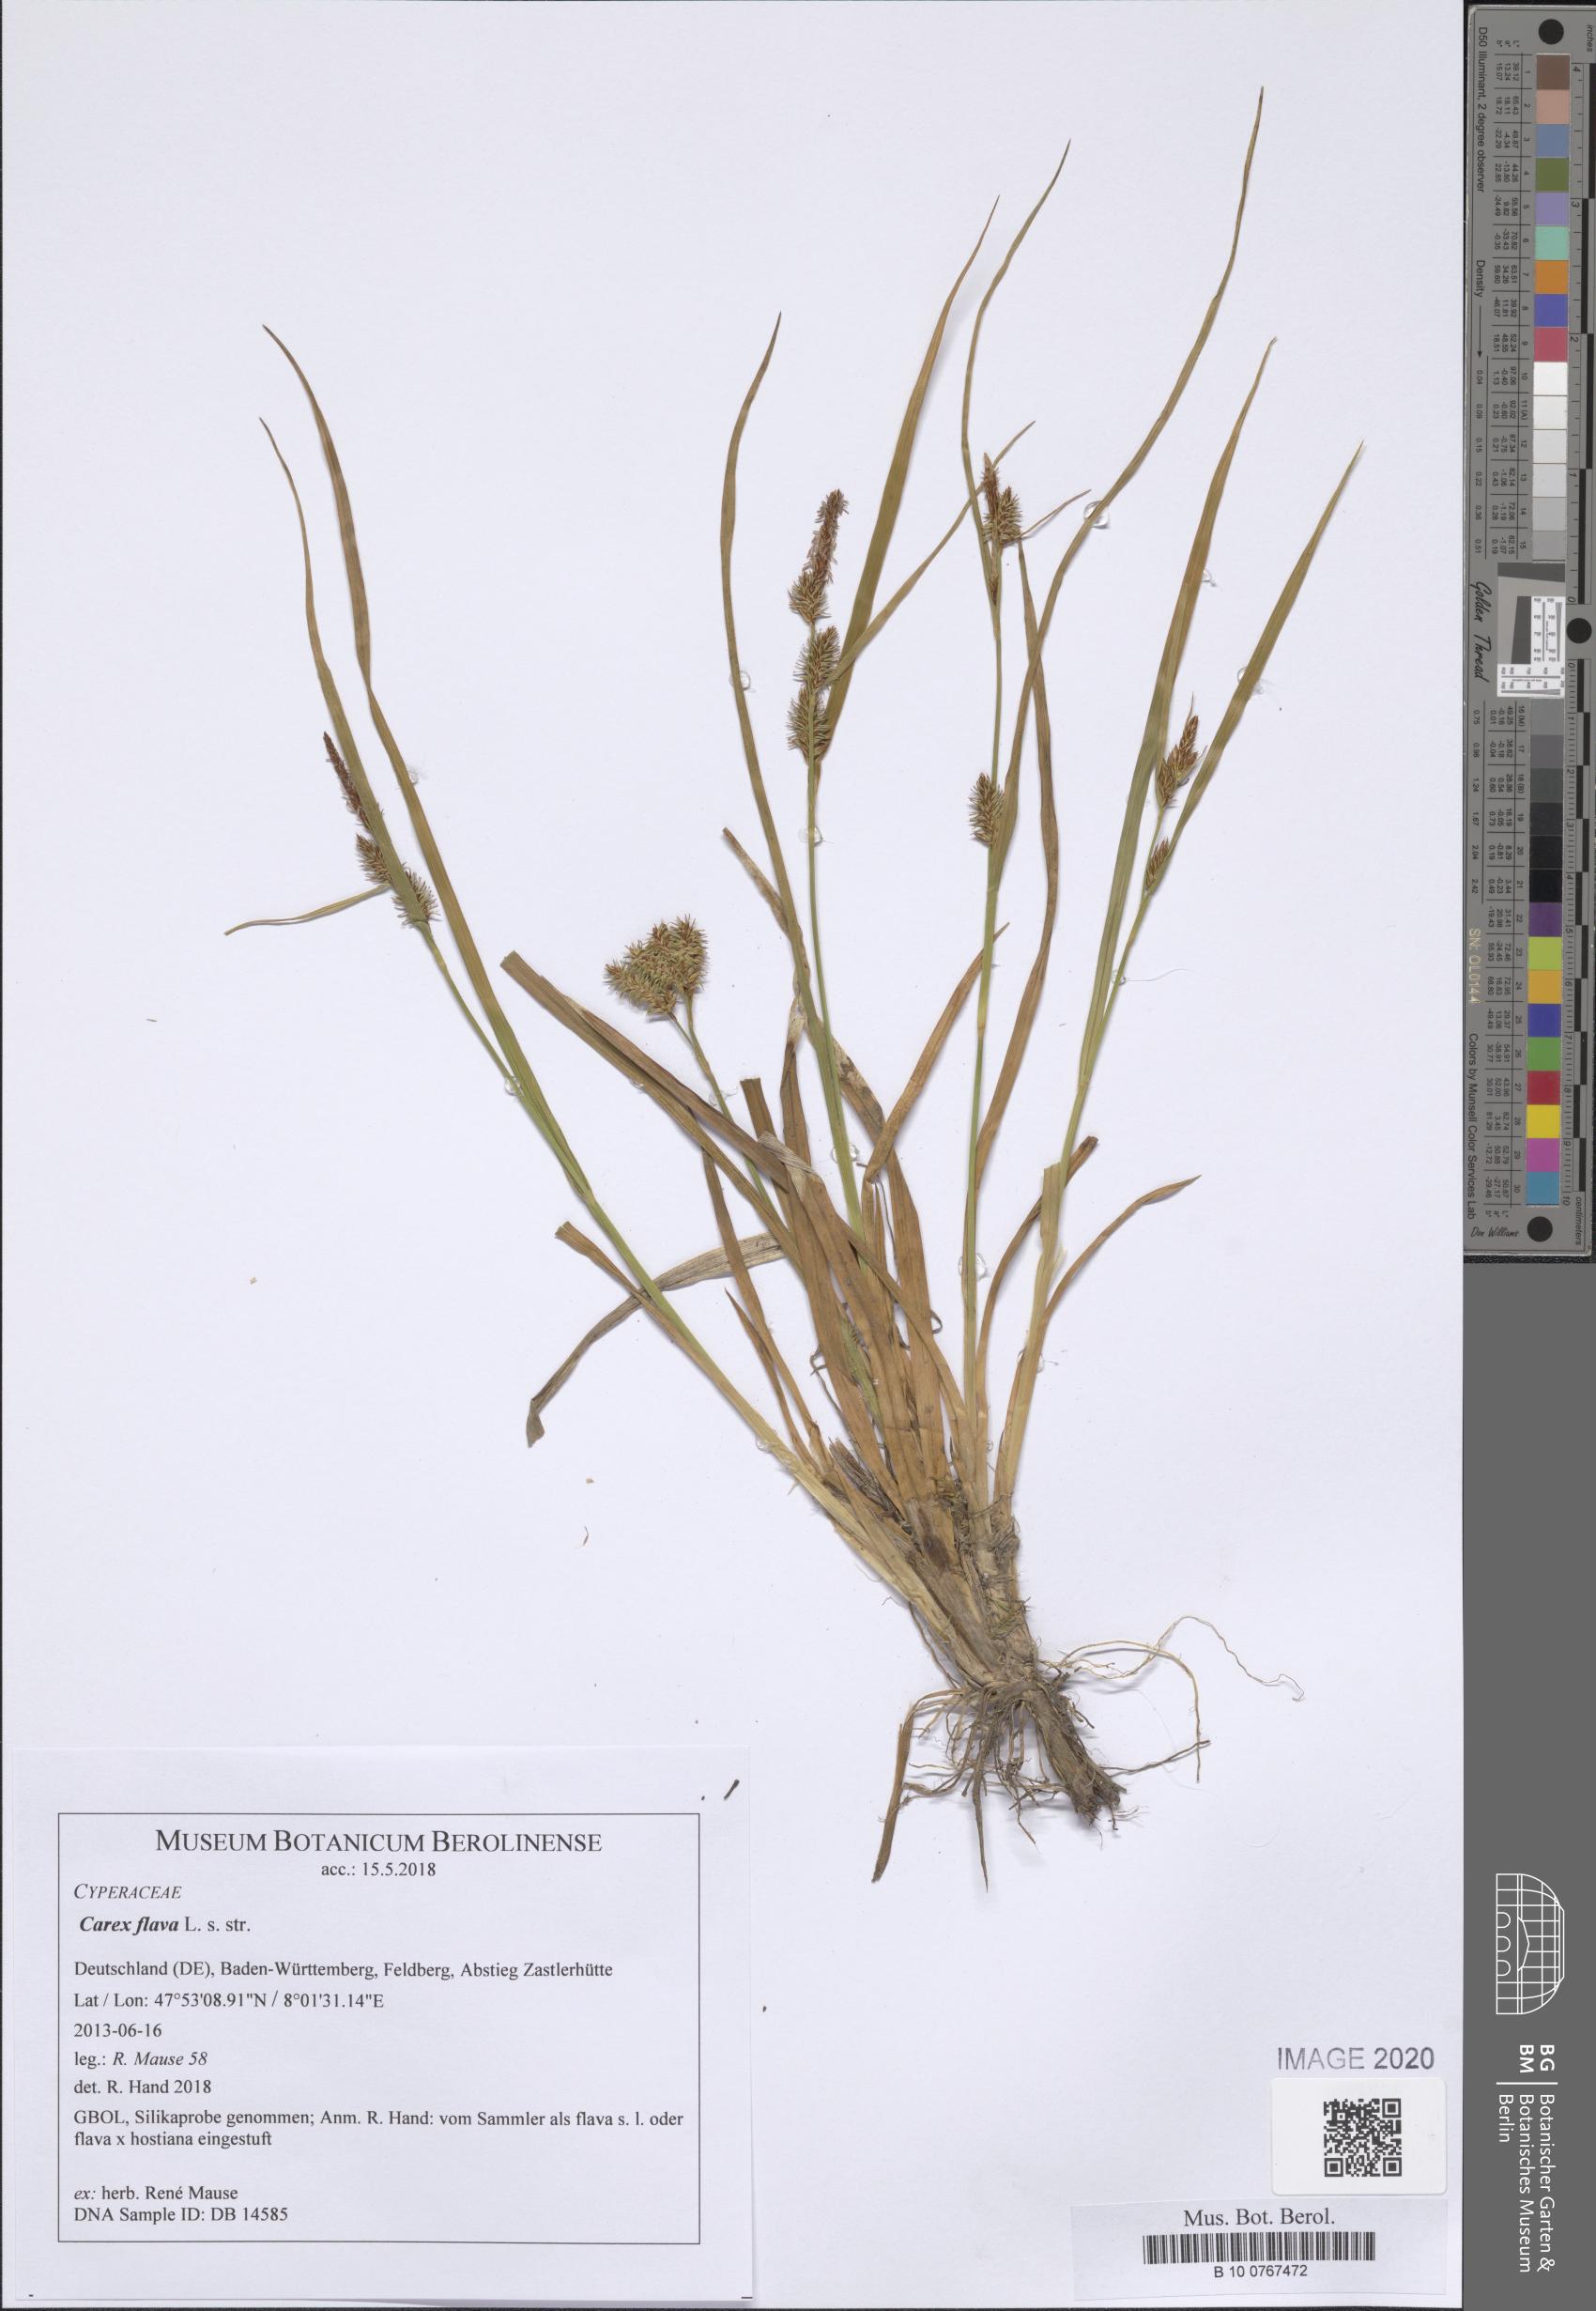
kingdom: Plantae
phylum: Tracheophyta
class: Liliopsida
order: Poales
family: Cyperaceae
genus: Carex
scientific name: Carex flava
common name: Large yellow-sedge
